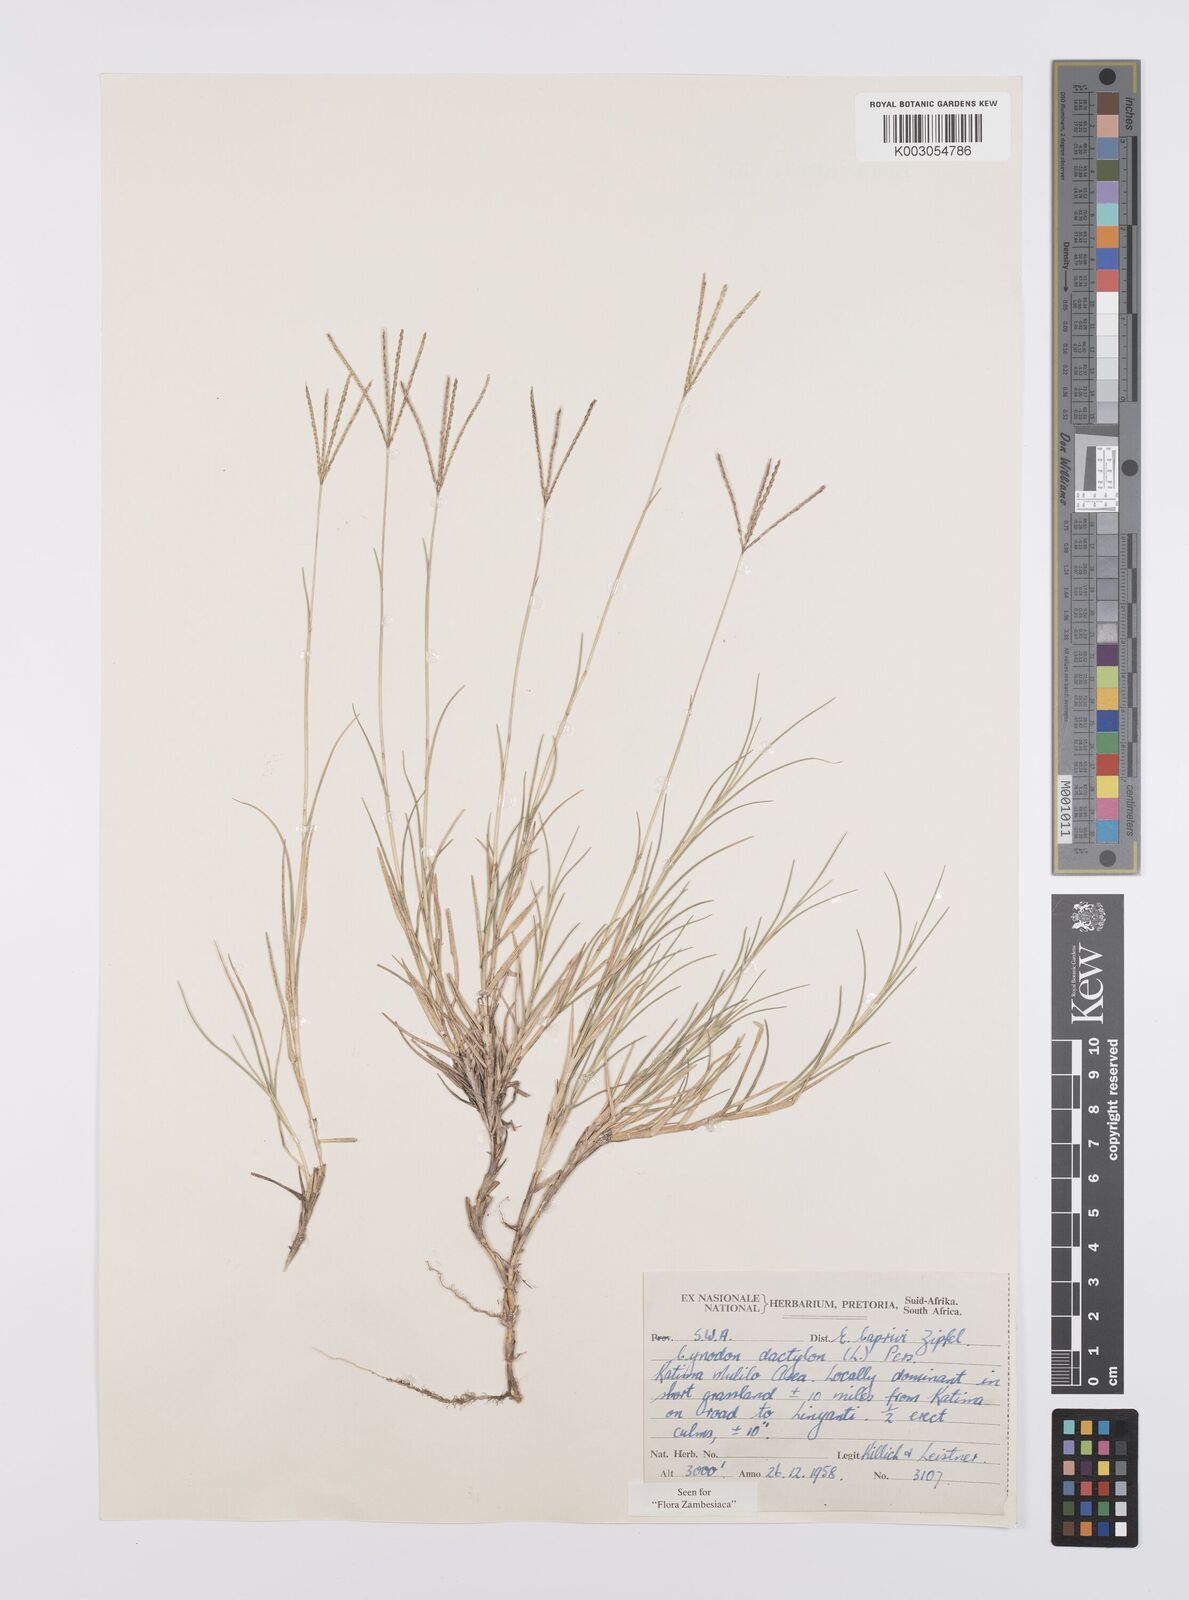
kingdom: Plantae
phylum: Tracheophyta
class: Liliopsida
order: Poales
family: Poaceae
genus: Cynodon
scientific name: Cynodon dactylon
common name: Bermuda grass
